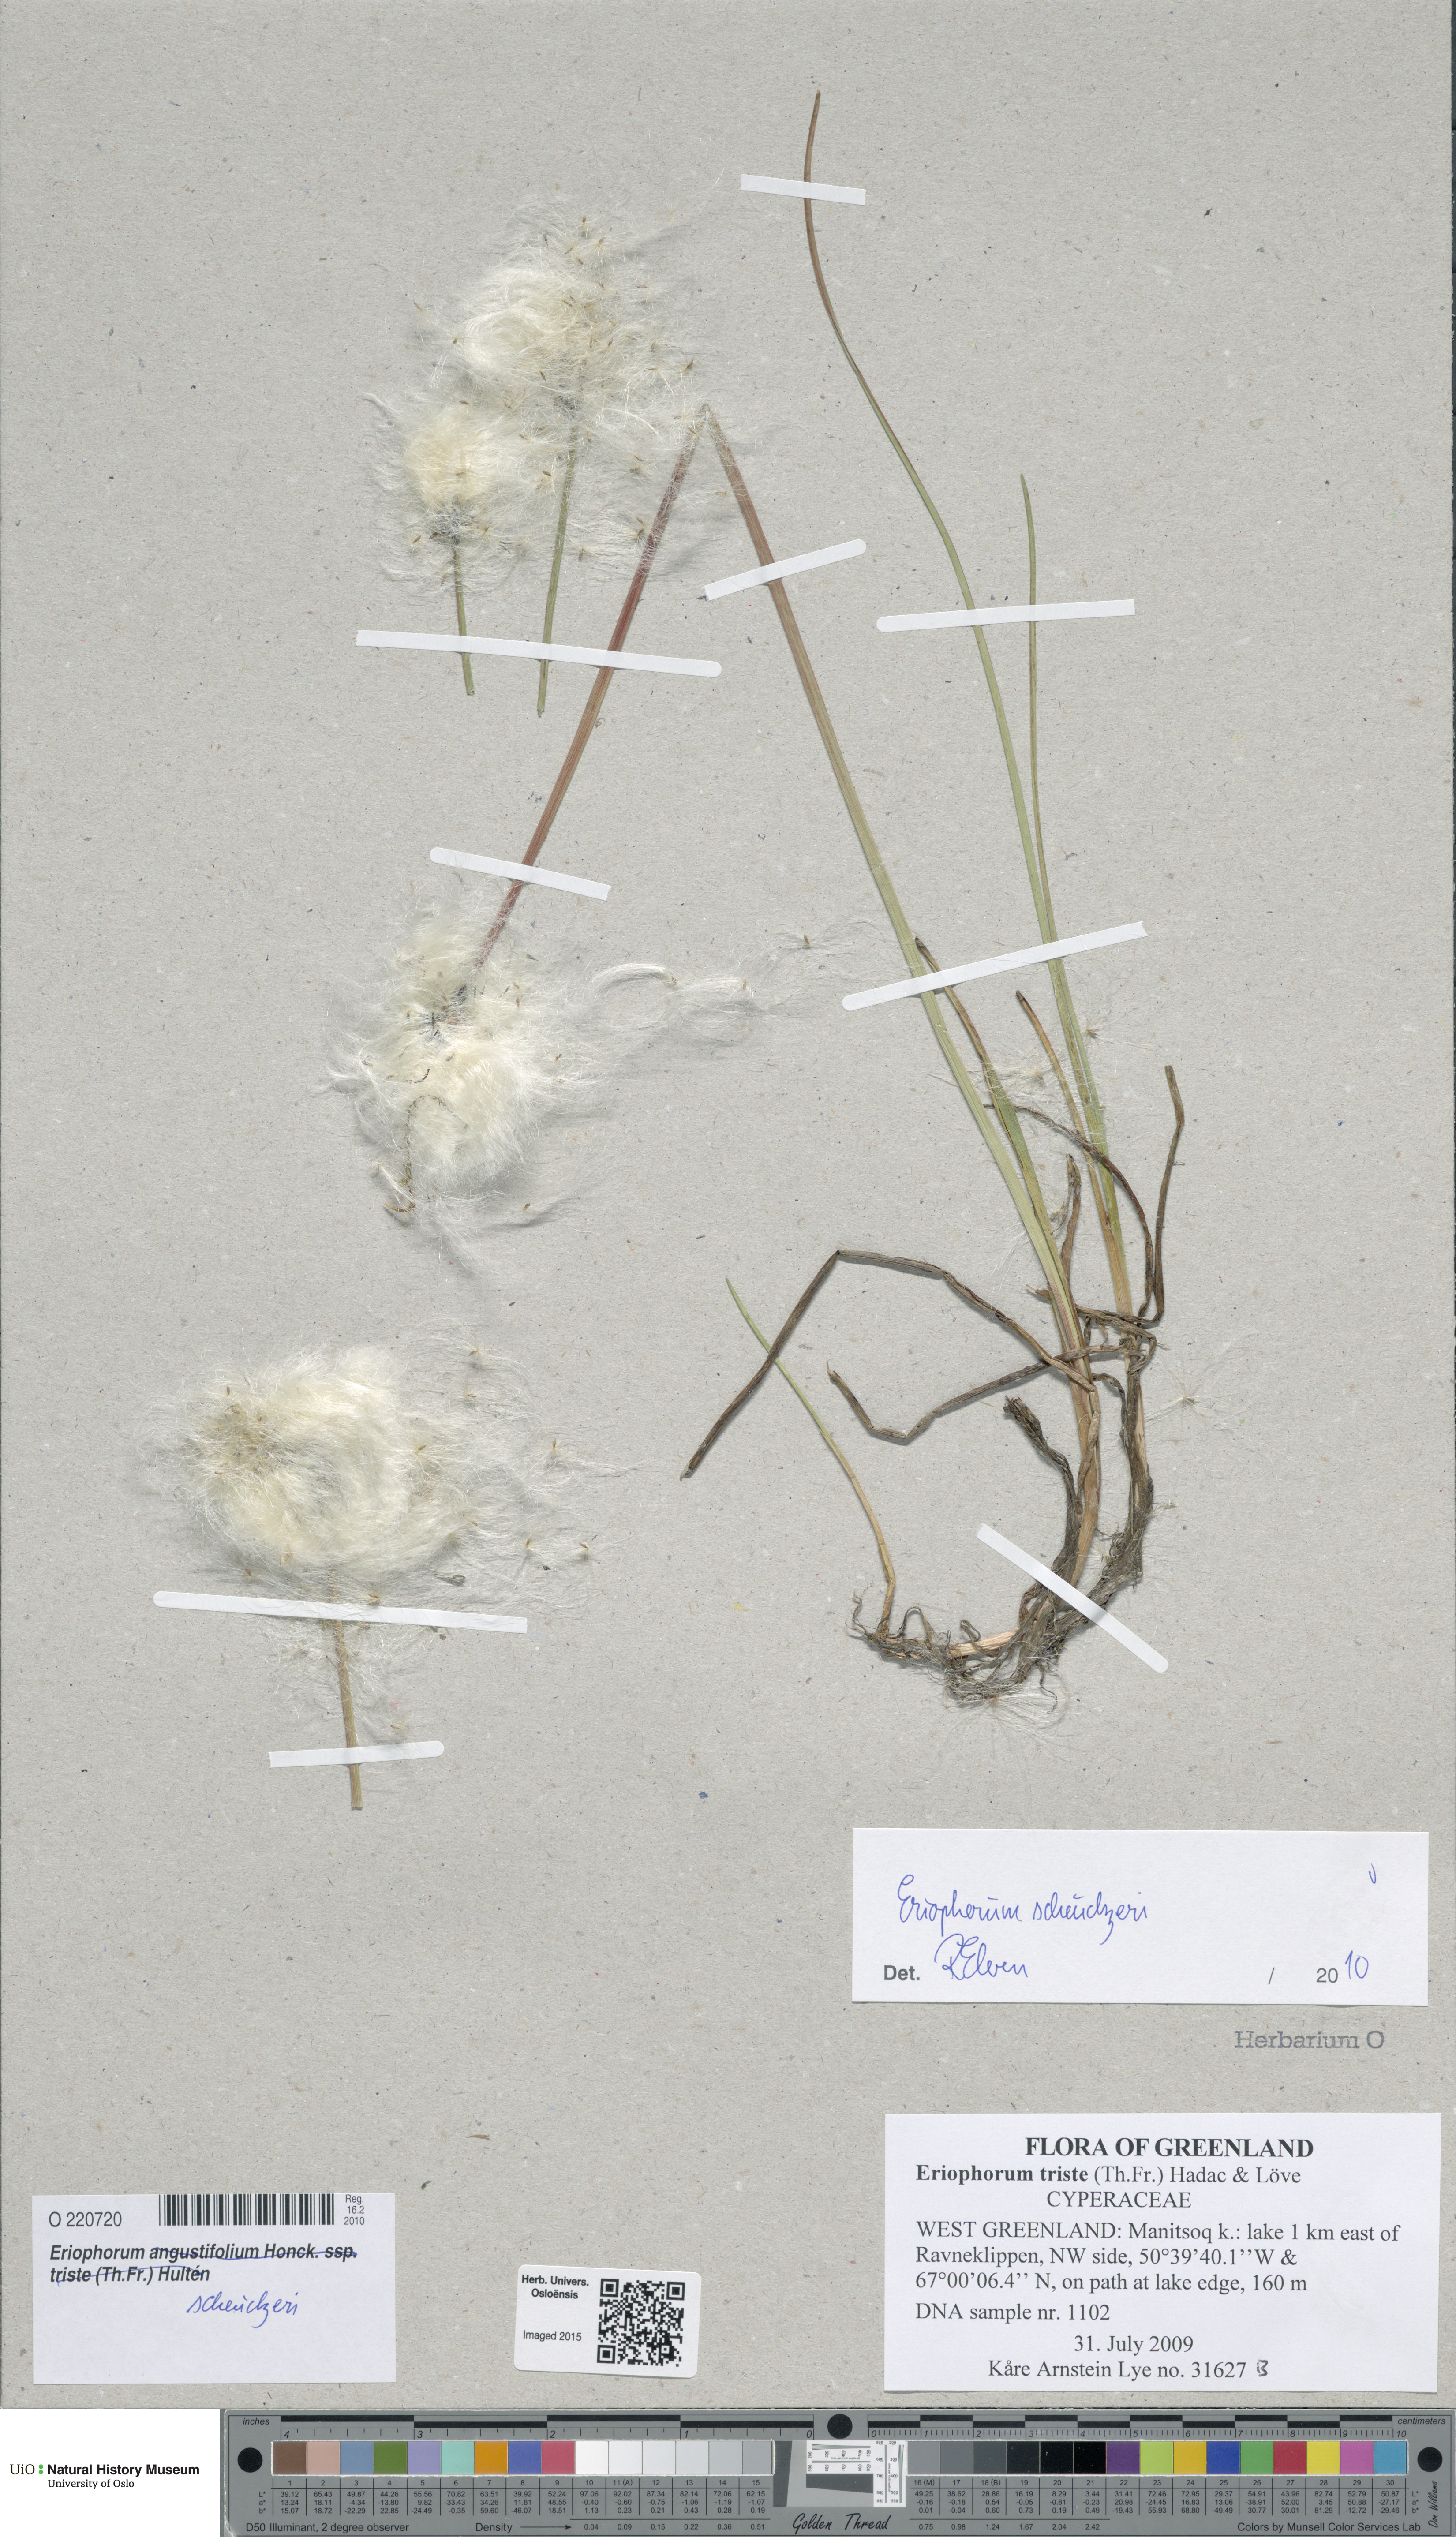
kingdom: Plantae
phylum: Tracheophyta
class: Liliopsida
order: Poales
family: Cyperaceae
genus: Eriophorum
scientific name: Eriophorum scheuchzeri
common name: Scheuchzer's cottongrass
